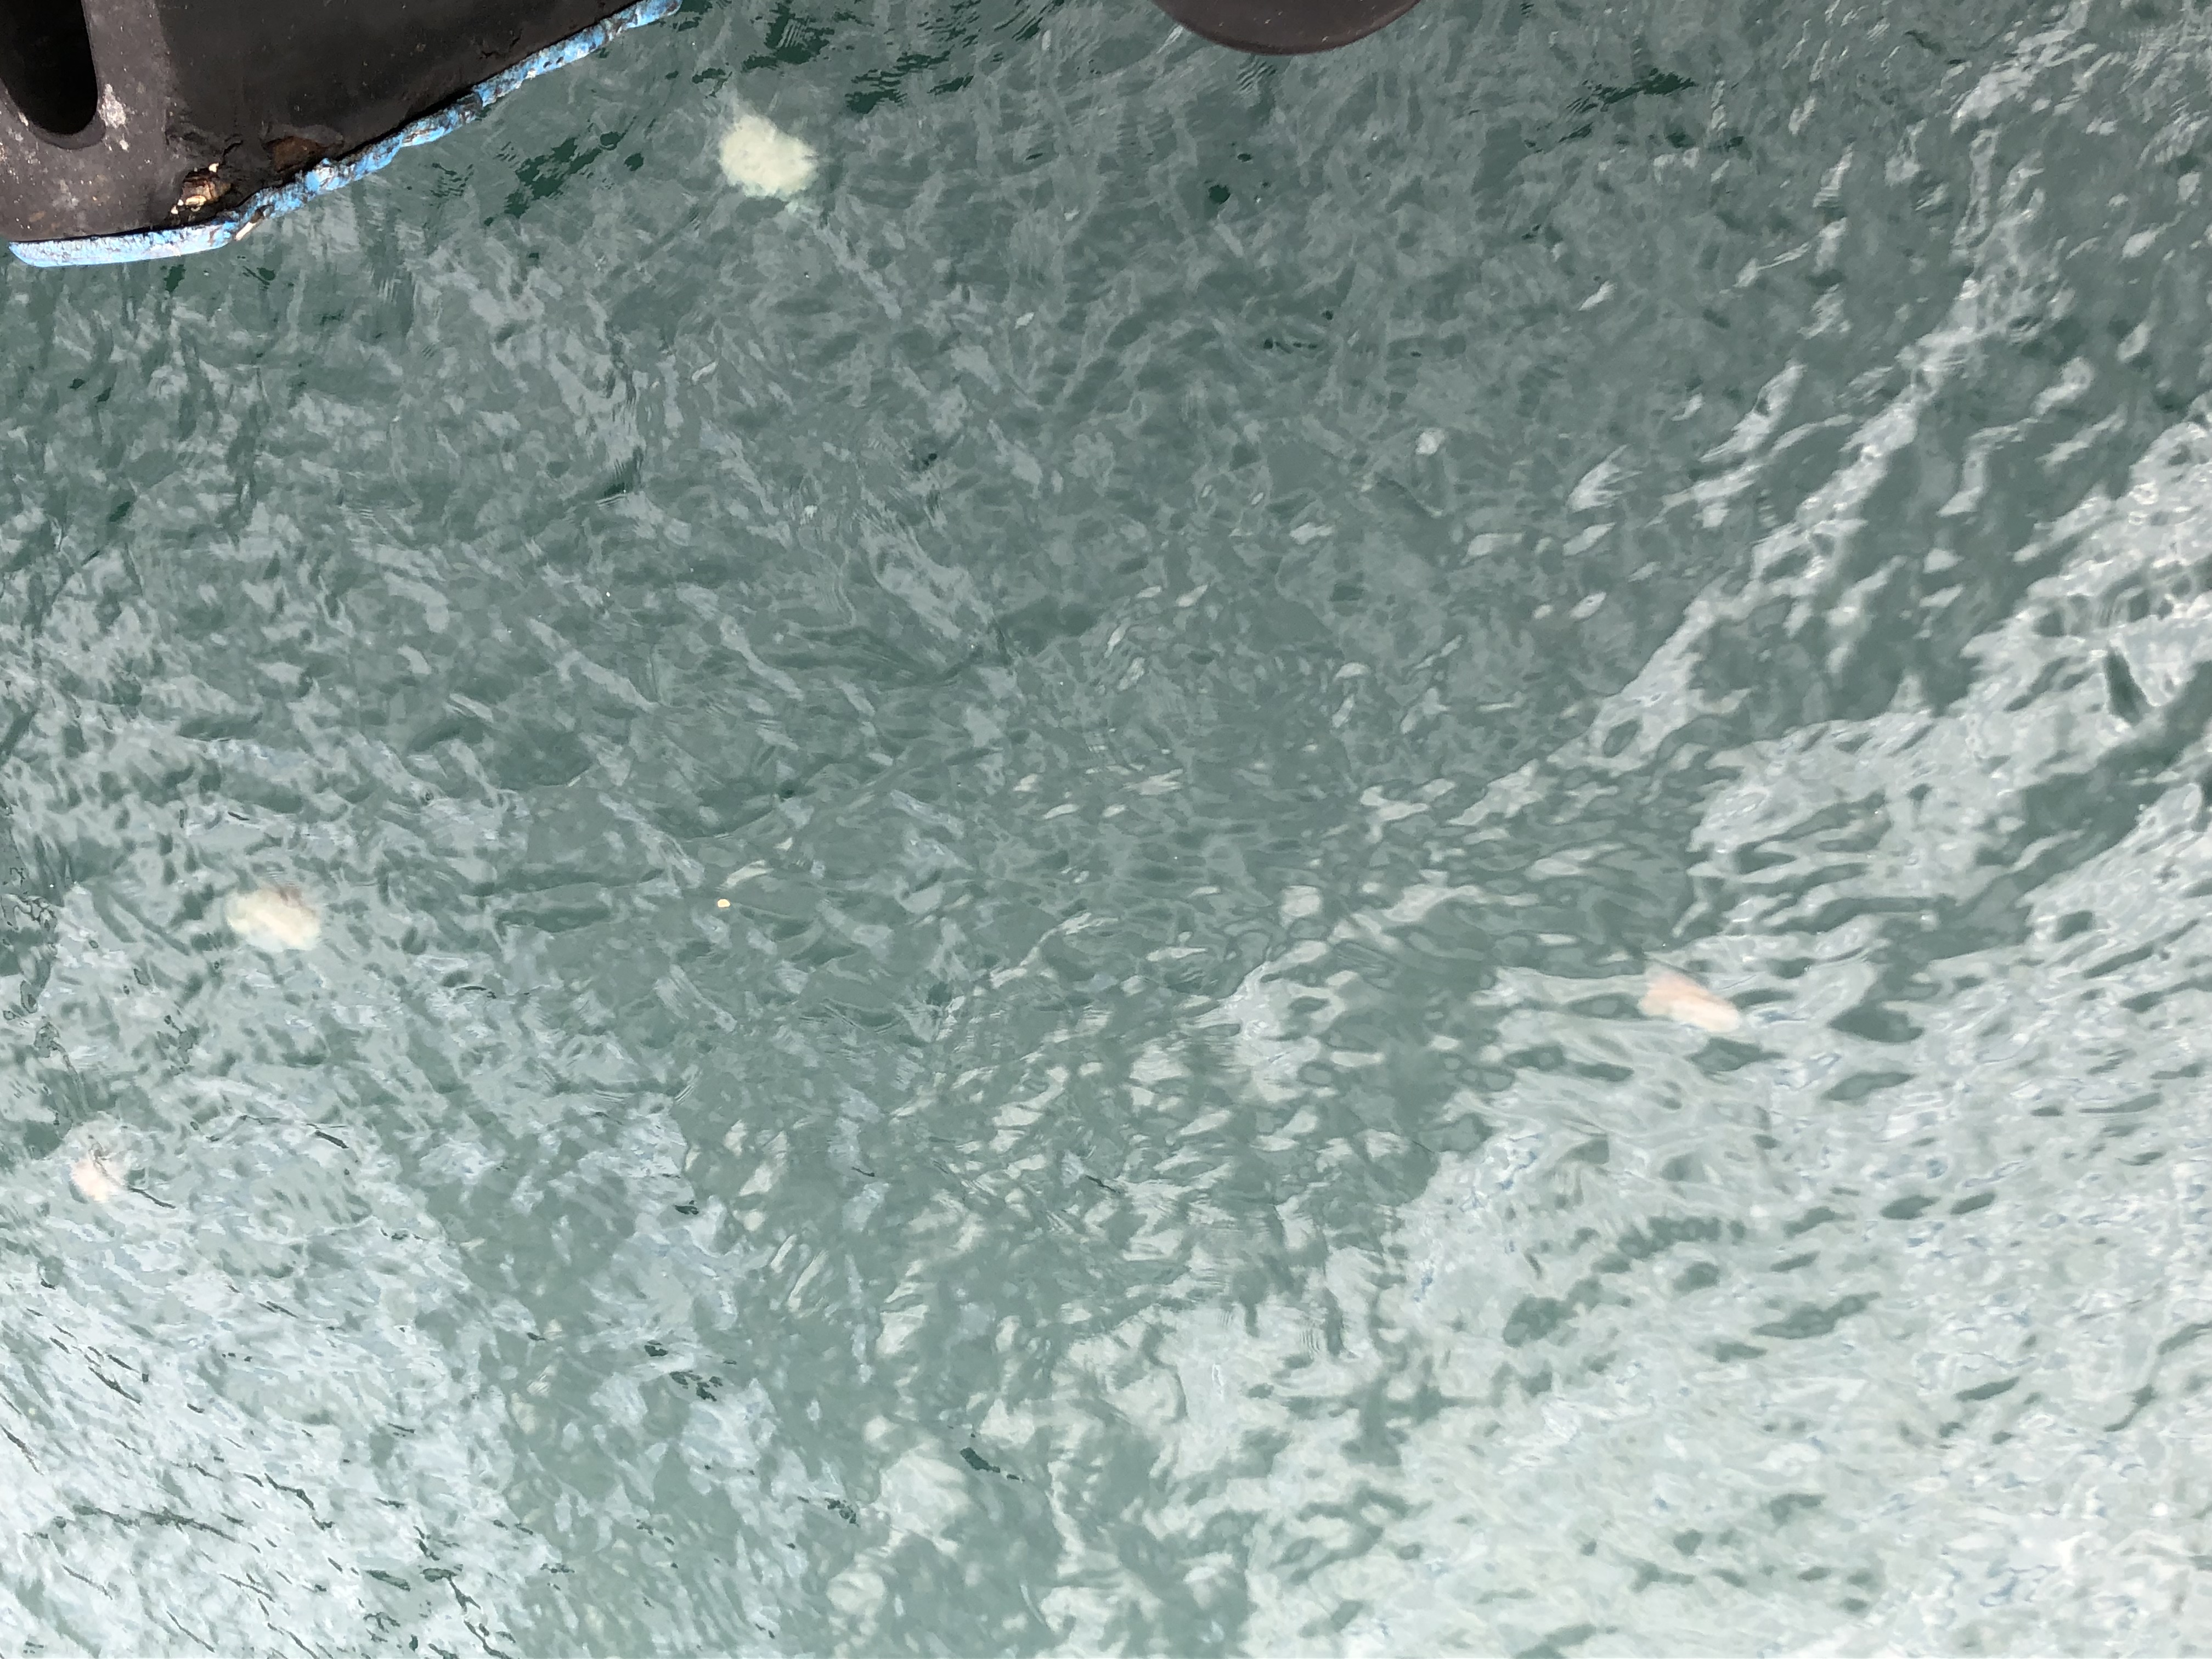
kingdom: Animalia
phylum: Cnidaria
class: Scyphozoa
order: Semaeostomeae
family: Cyaneidae
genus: Cyanea
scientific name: Cyanea nozakii
